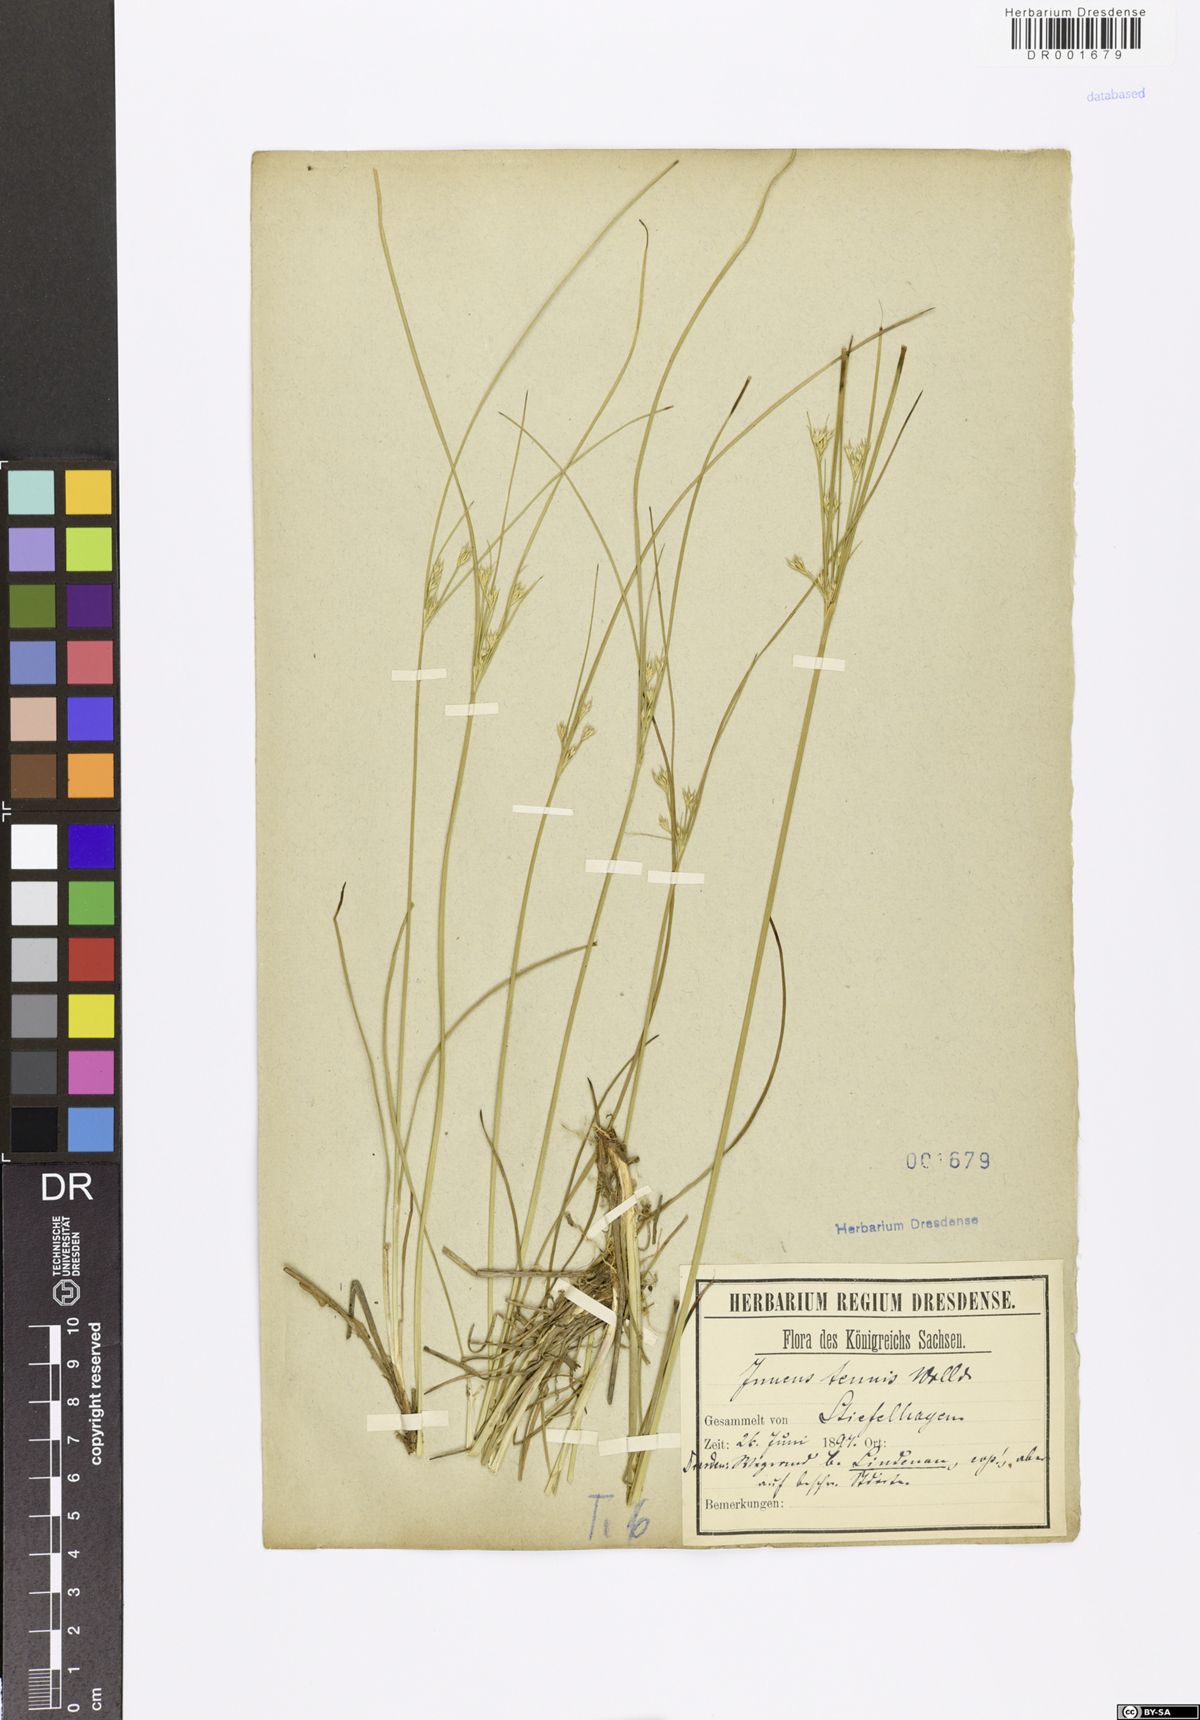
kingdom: Plantae
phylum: Tracheophyta
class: Liliopsida
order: Poales
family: Juncaceae
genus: Juncus
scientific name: Juncus tenuis
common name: Slender rush
